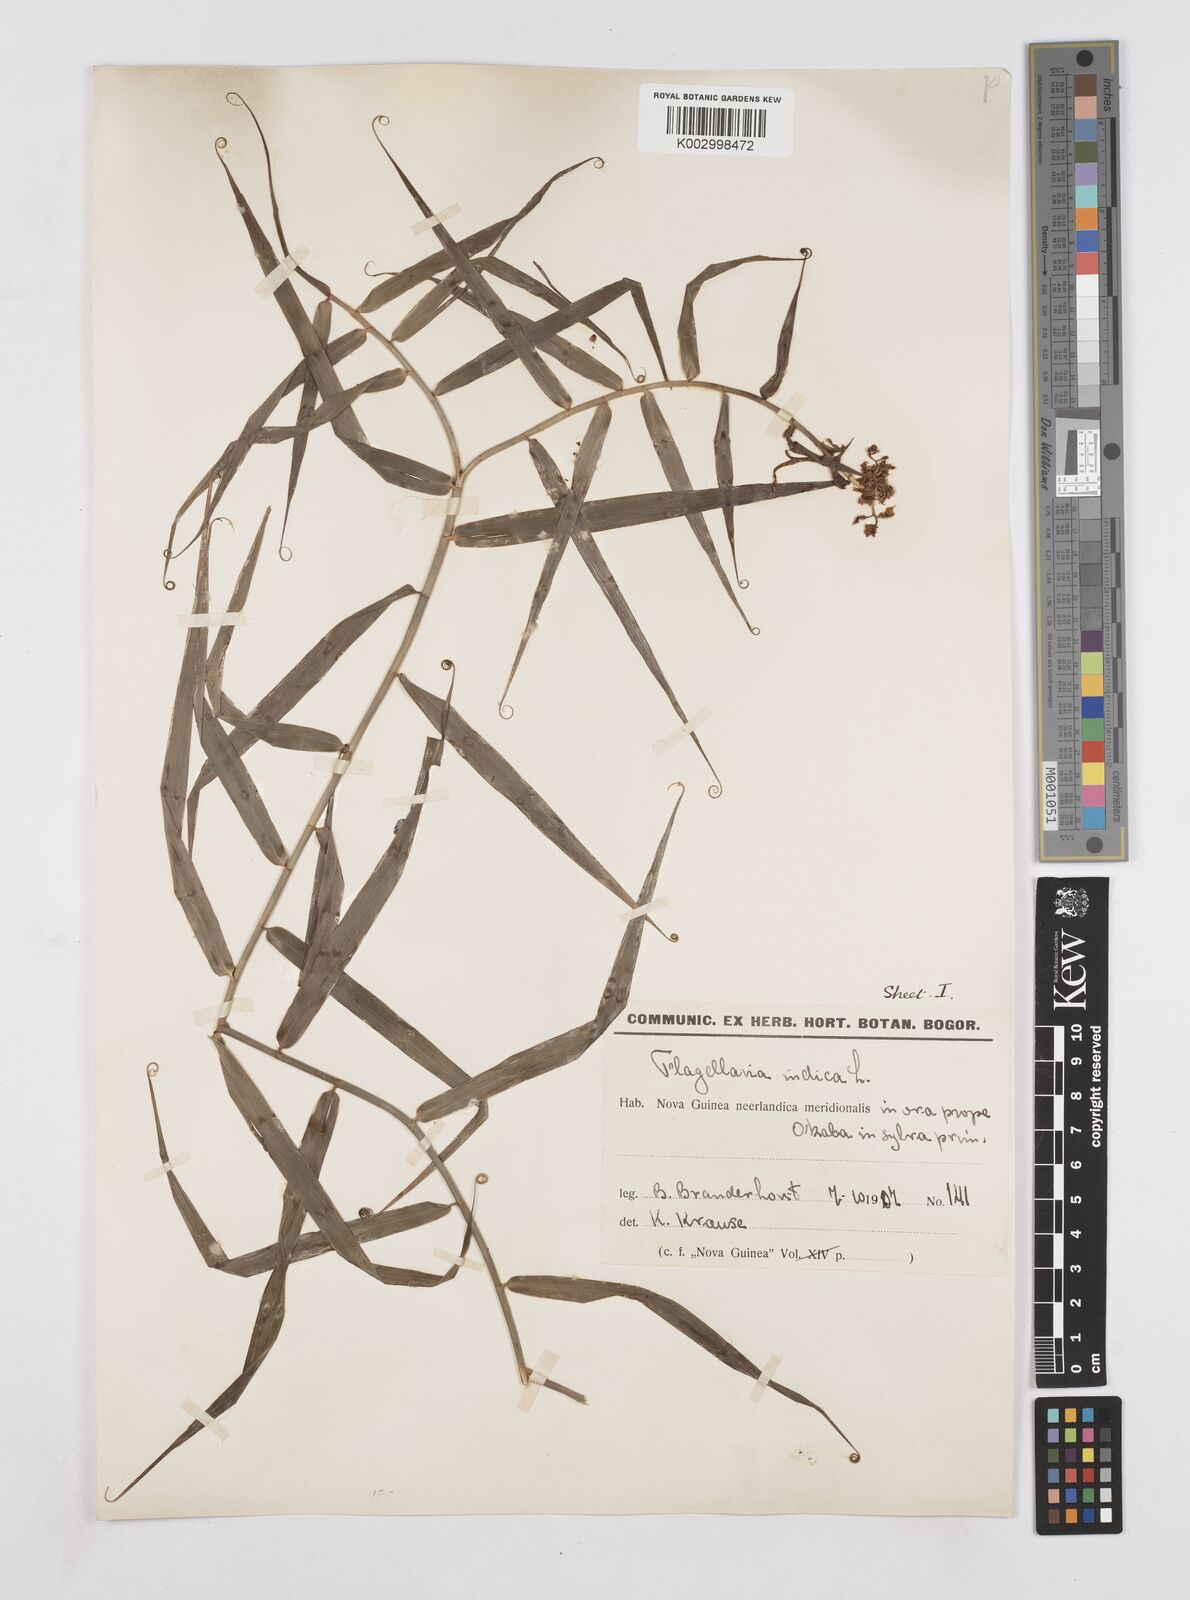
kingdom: Plantae
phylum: Tracheophyta
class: Liliopsida
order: Poales
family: Flagellariaceae
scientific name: Flagellariaceae
